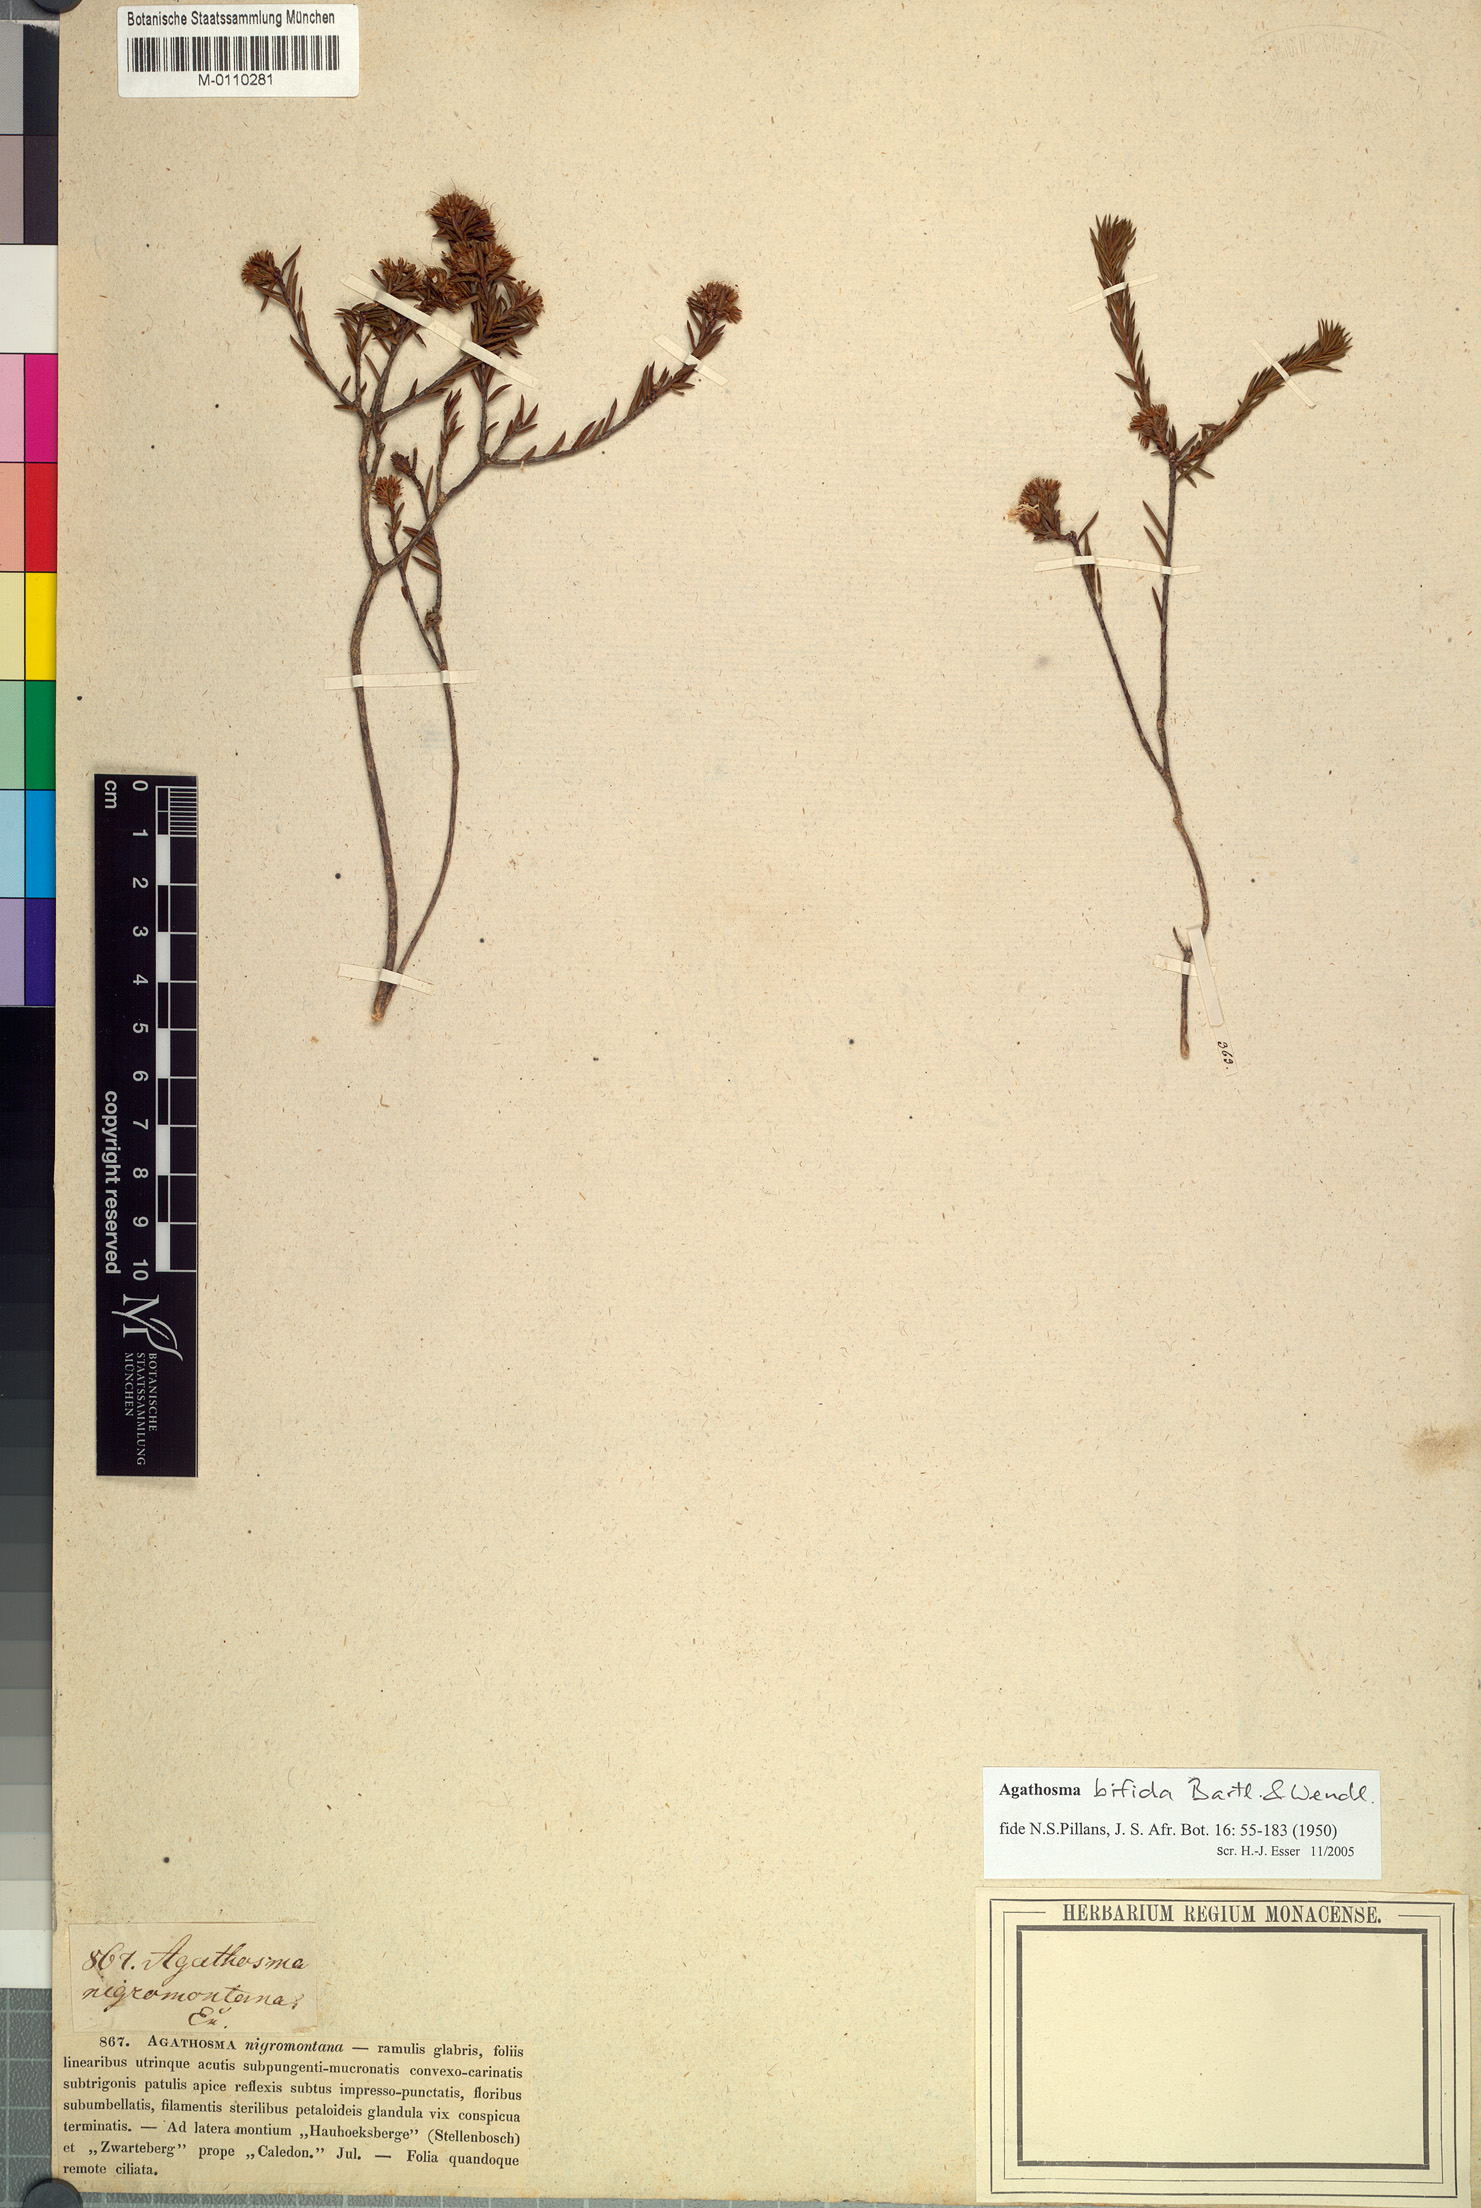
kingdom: Plantae
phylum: Tracheophyta
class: Magnoliopsida
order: Sapindales
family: Rutaceae
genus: Agathosma
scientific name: Agathosma bifida
